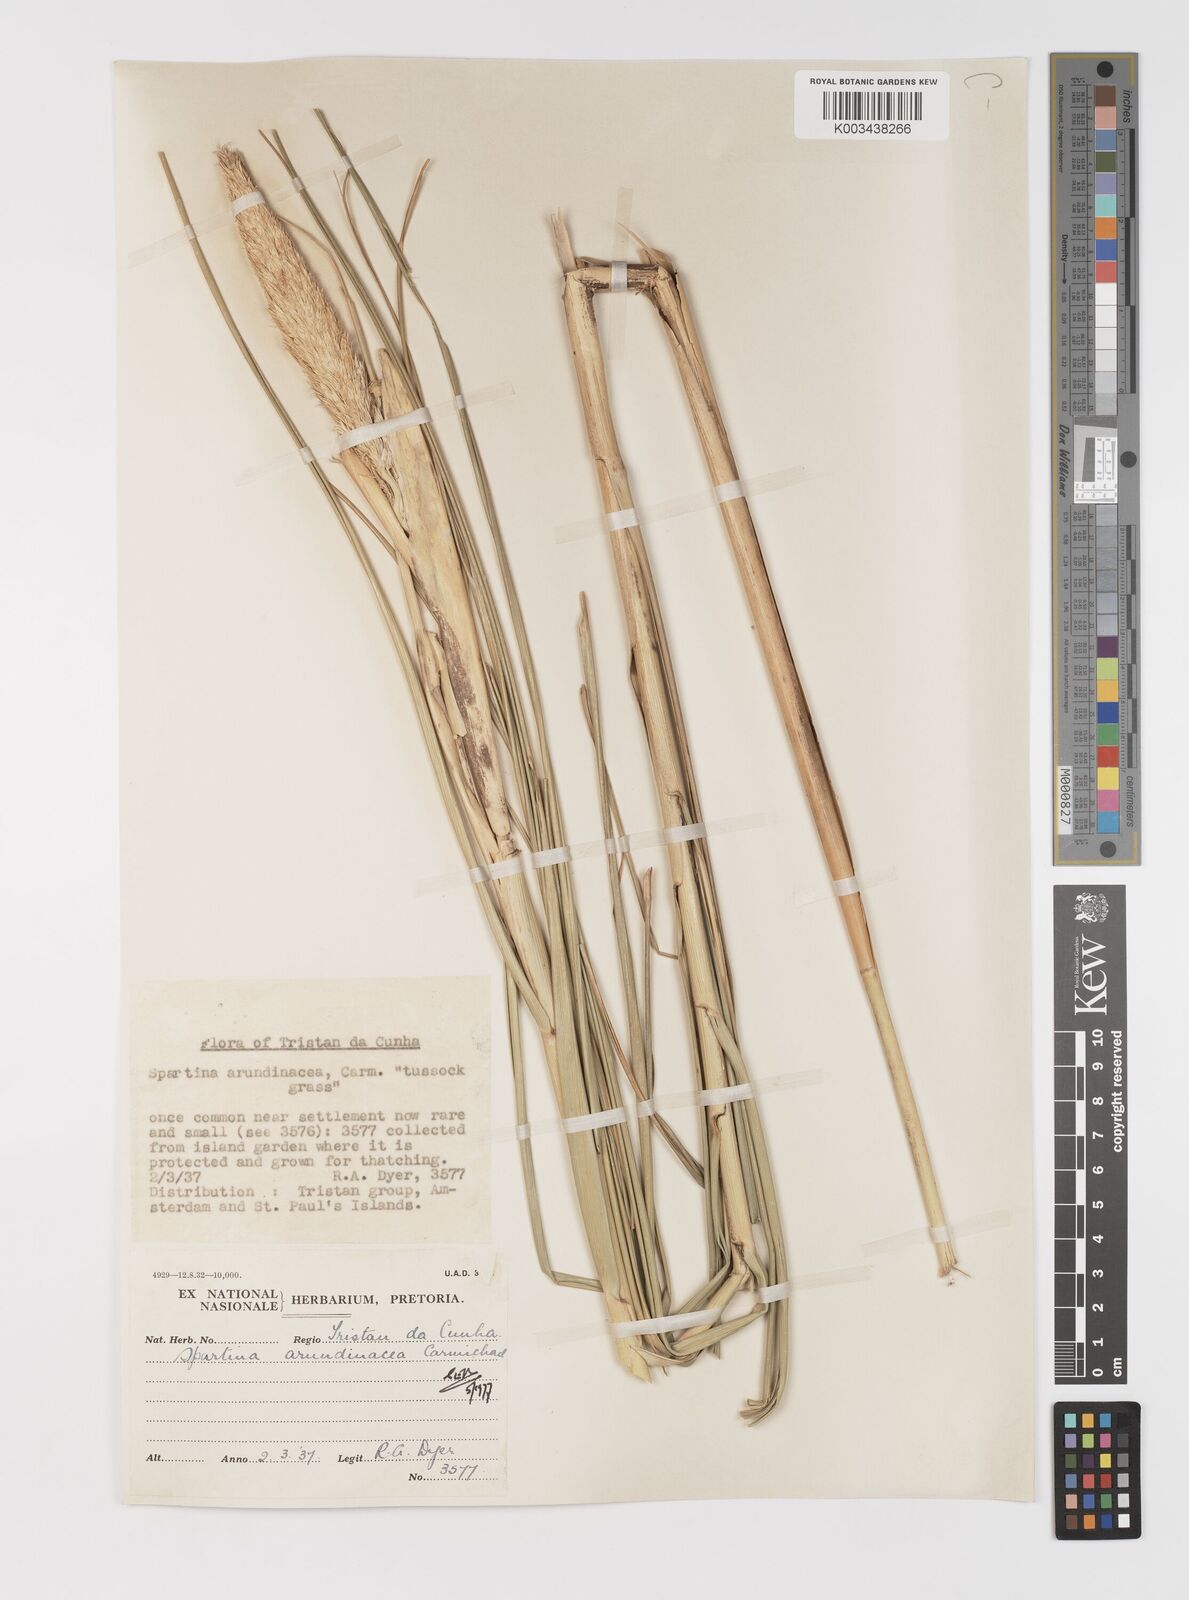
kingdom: Plantae
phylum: Tracheophyta
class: Liliopsida
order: Poales
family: Poaceae
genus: Sporobolus
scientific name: Sporobolus mobberleyanus
